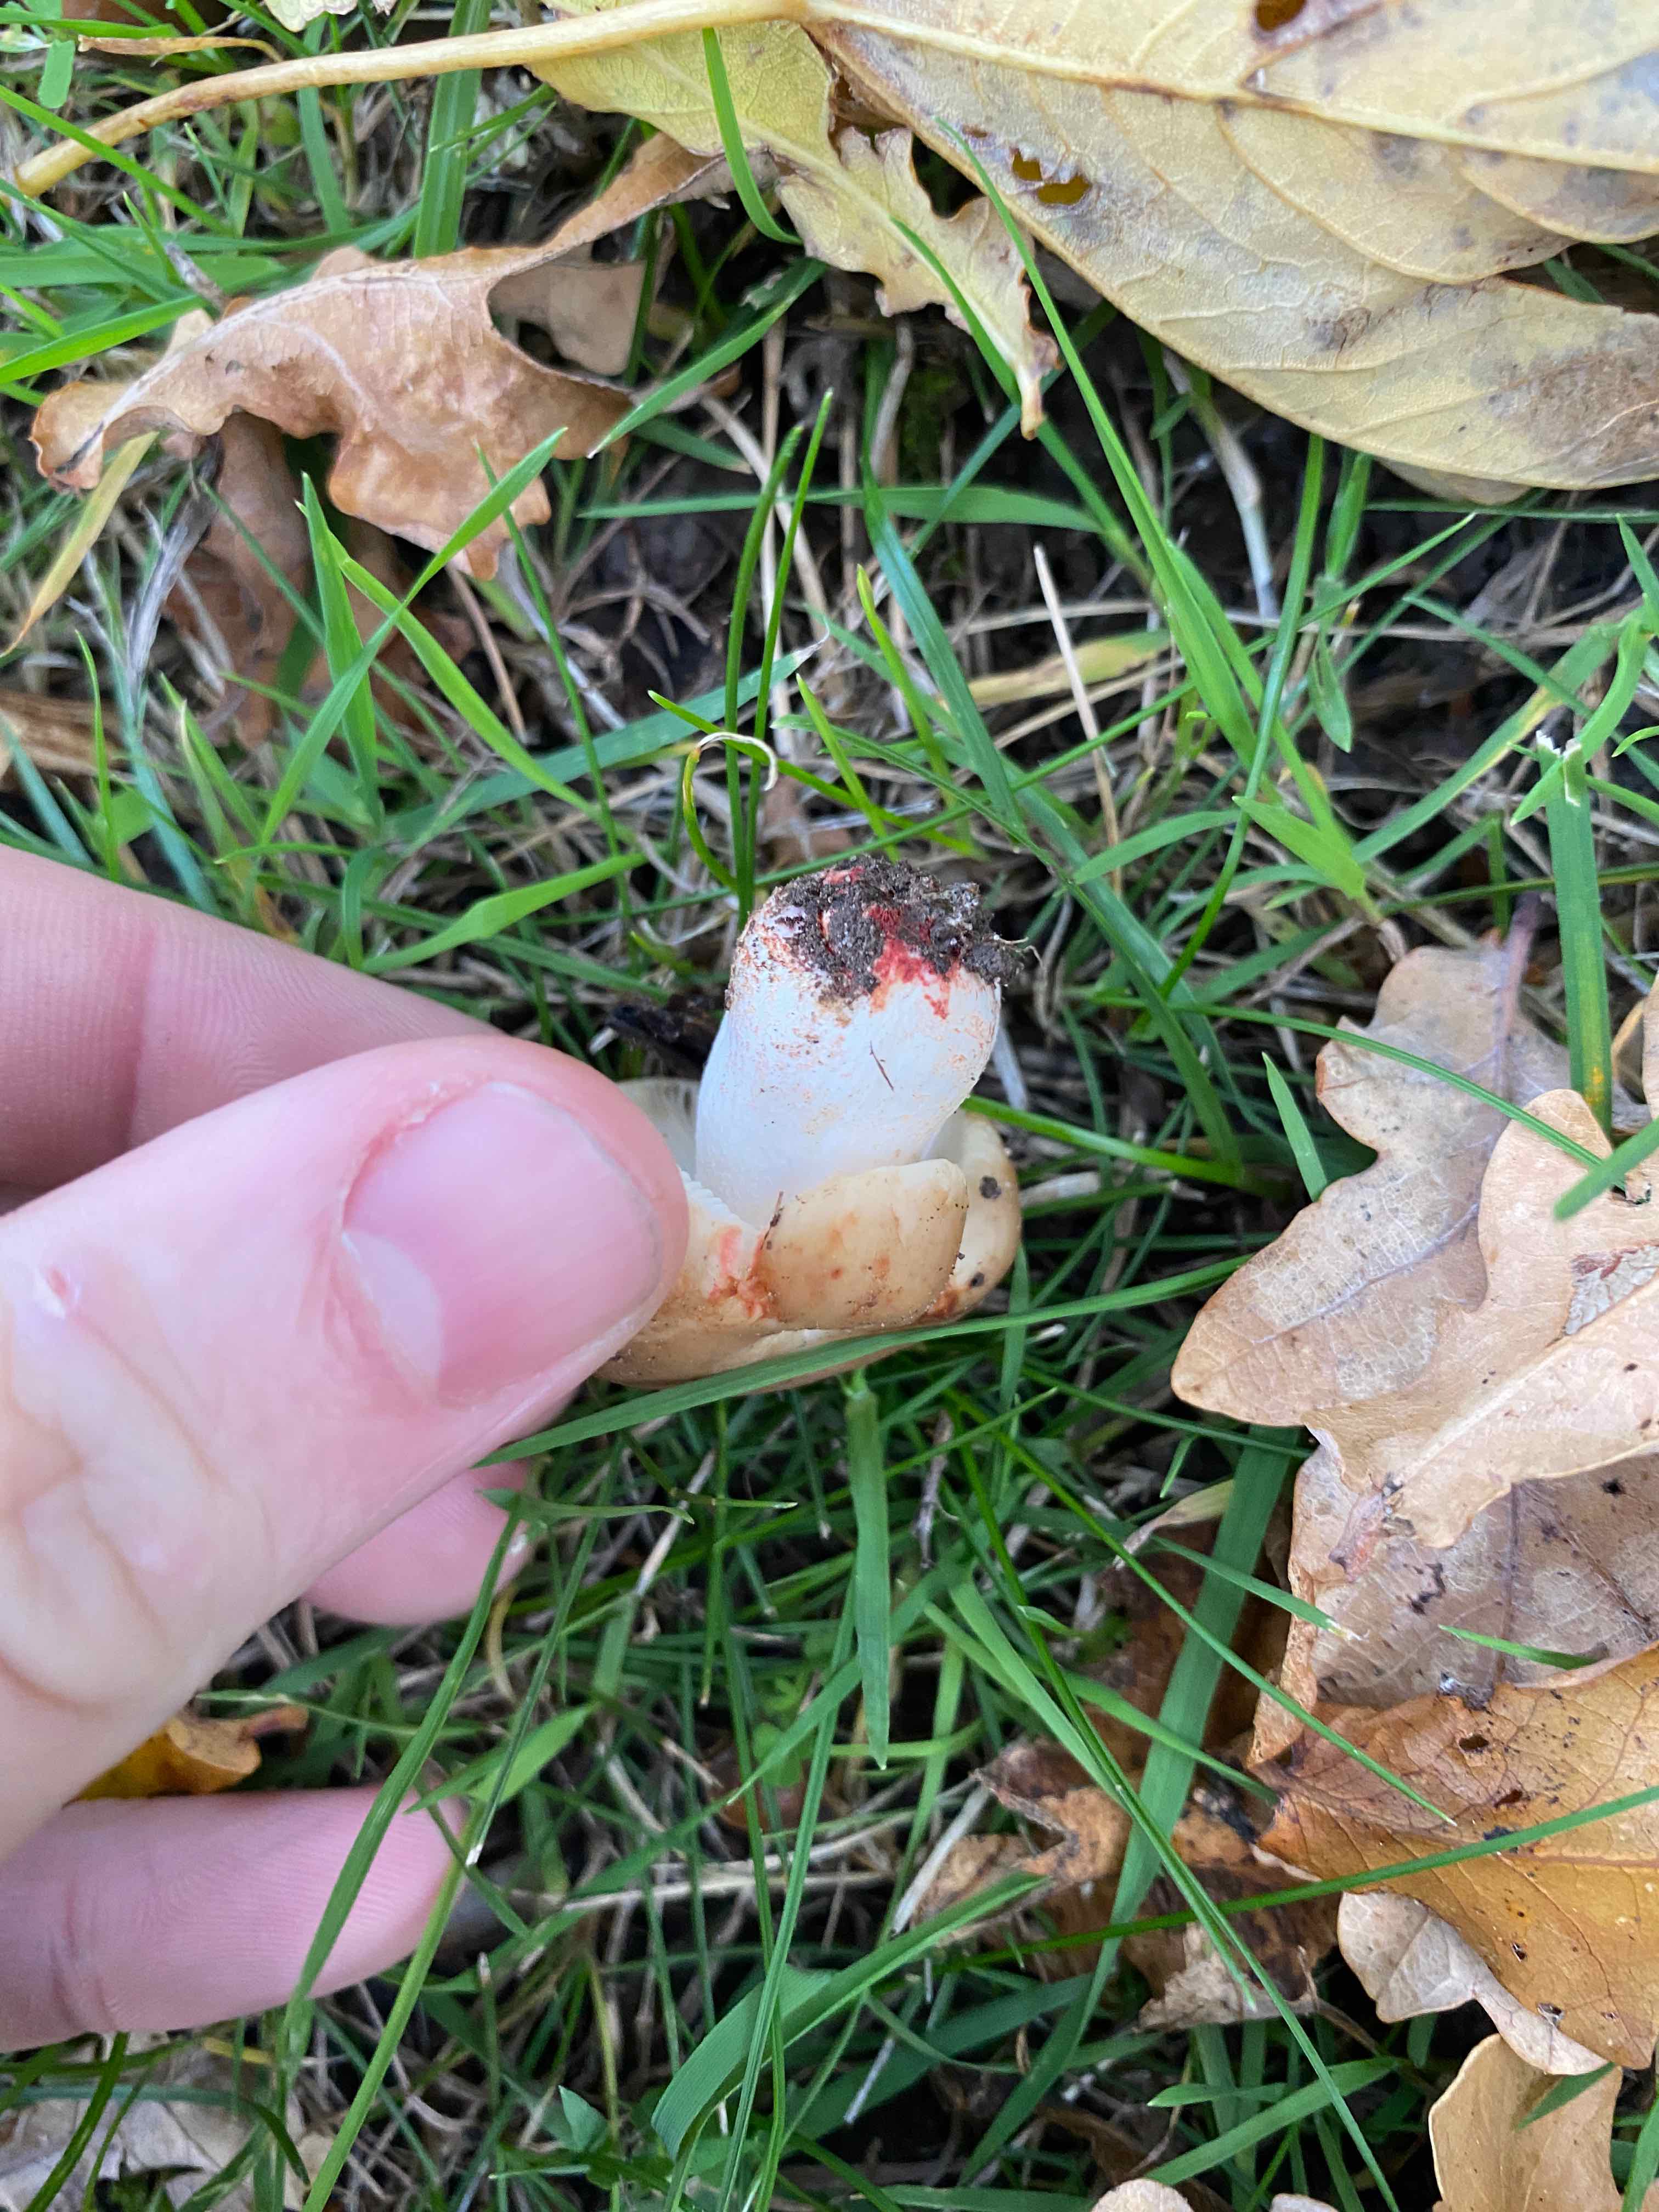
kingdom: Fungi
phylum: Basidiomycota
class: Agaricomycetes
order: Russulales
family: Russulaceae
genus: Russula
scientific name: Russula recondita
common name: mild kam-skørhat
